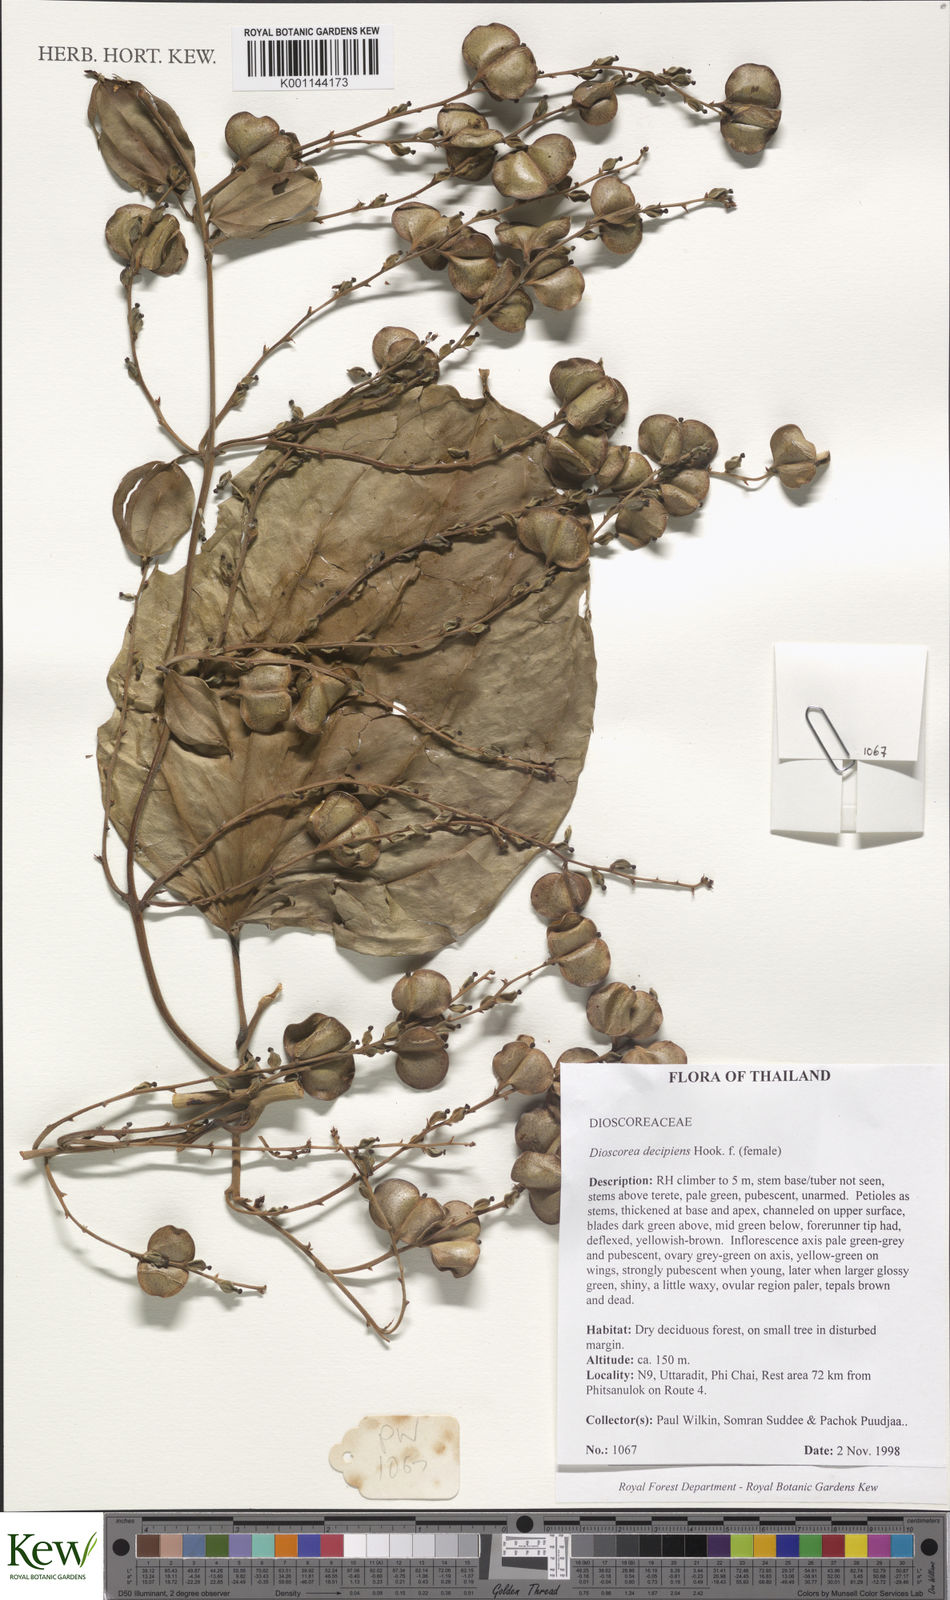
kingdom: Plantae
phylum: Tracheophyta
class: Liliopsida
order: Dioscoreales
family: Dioscoreaceae
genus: Dioscorea
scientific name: Dioscorea decipiens
